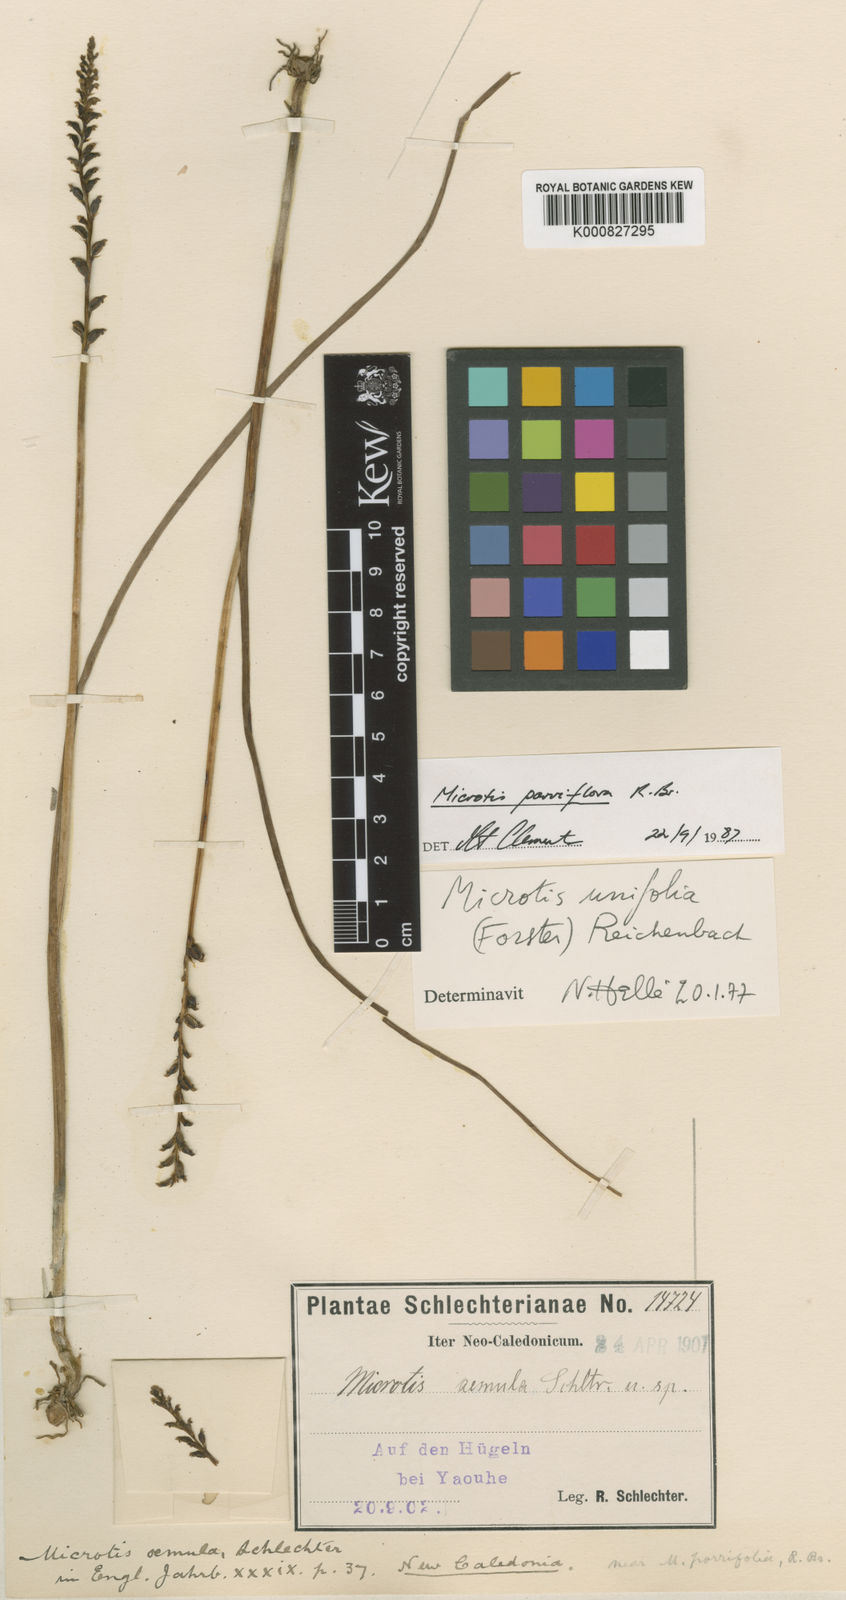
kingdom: Plantae
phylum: Tracheophyta
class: Liliopsida
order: Asparagales
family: Orchidaceae
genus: Microtis
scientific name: Microtis unifolia
